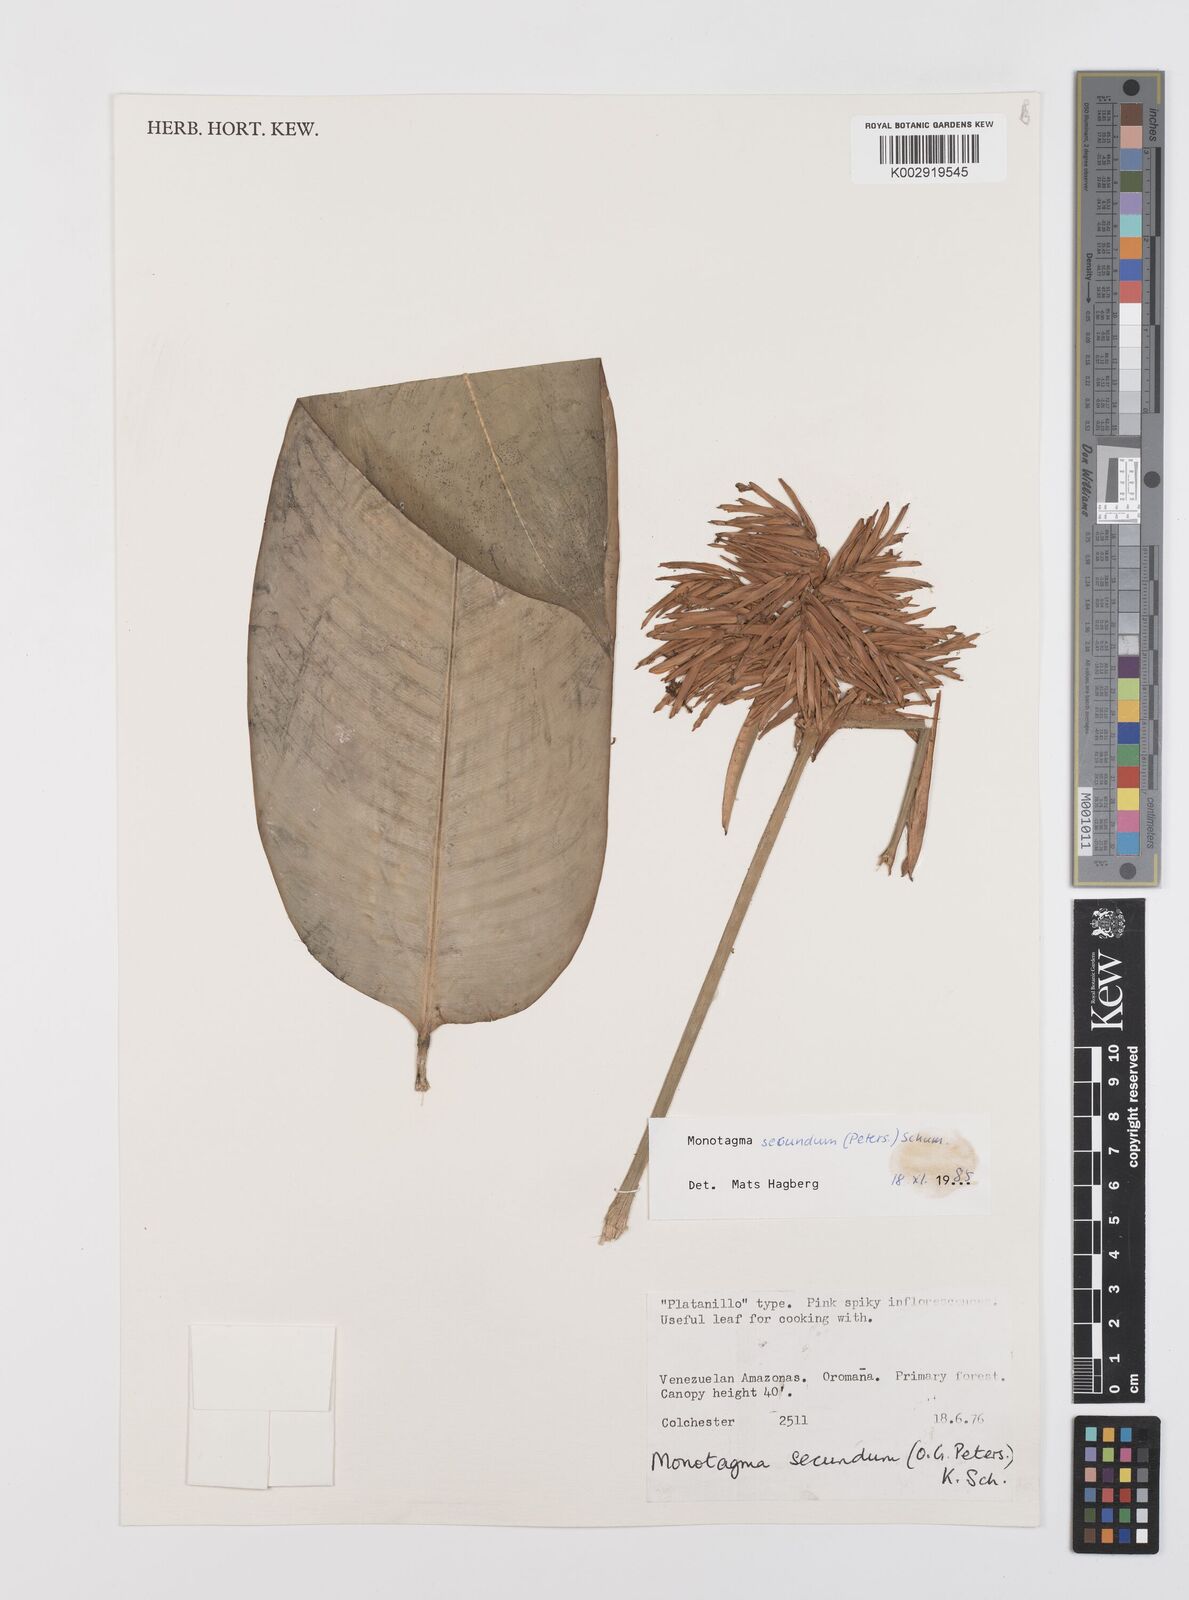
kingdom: Plantae
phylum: Tracheophyta
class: Liliopsida
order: Zingiberales
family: Marantaceae
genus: Monotagma
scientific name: Monotagma secundum
